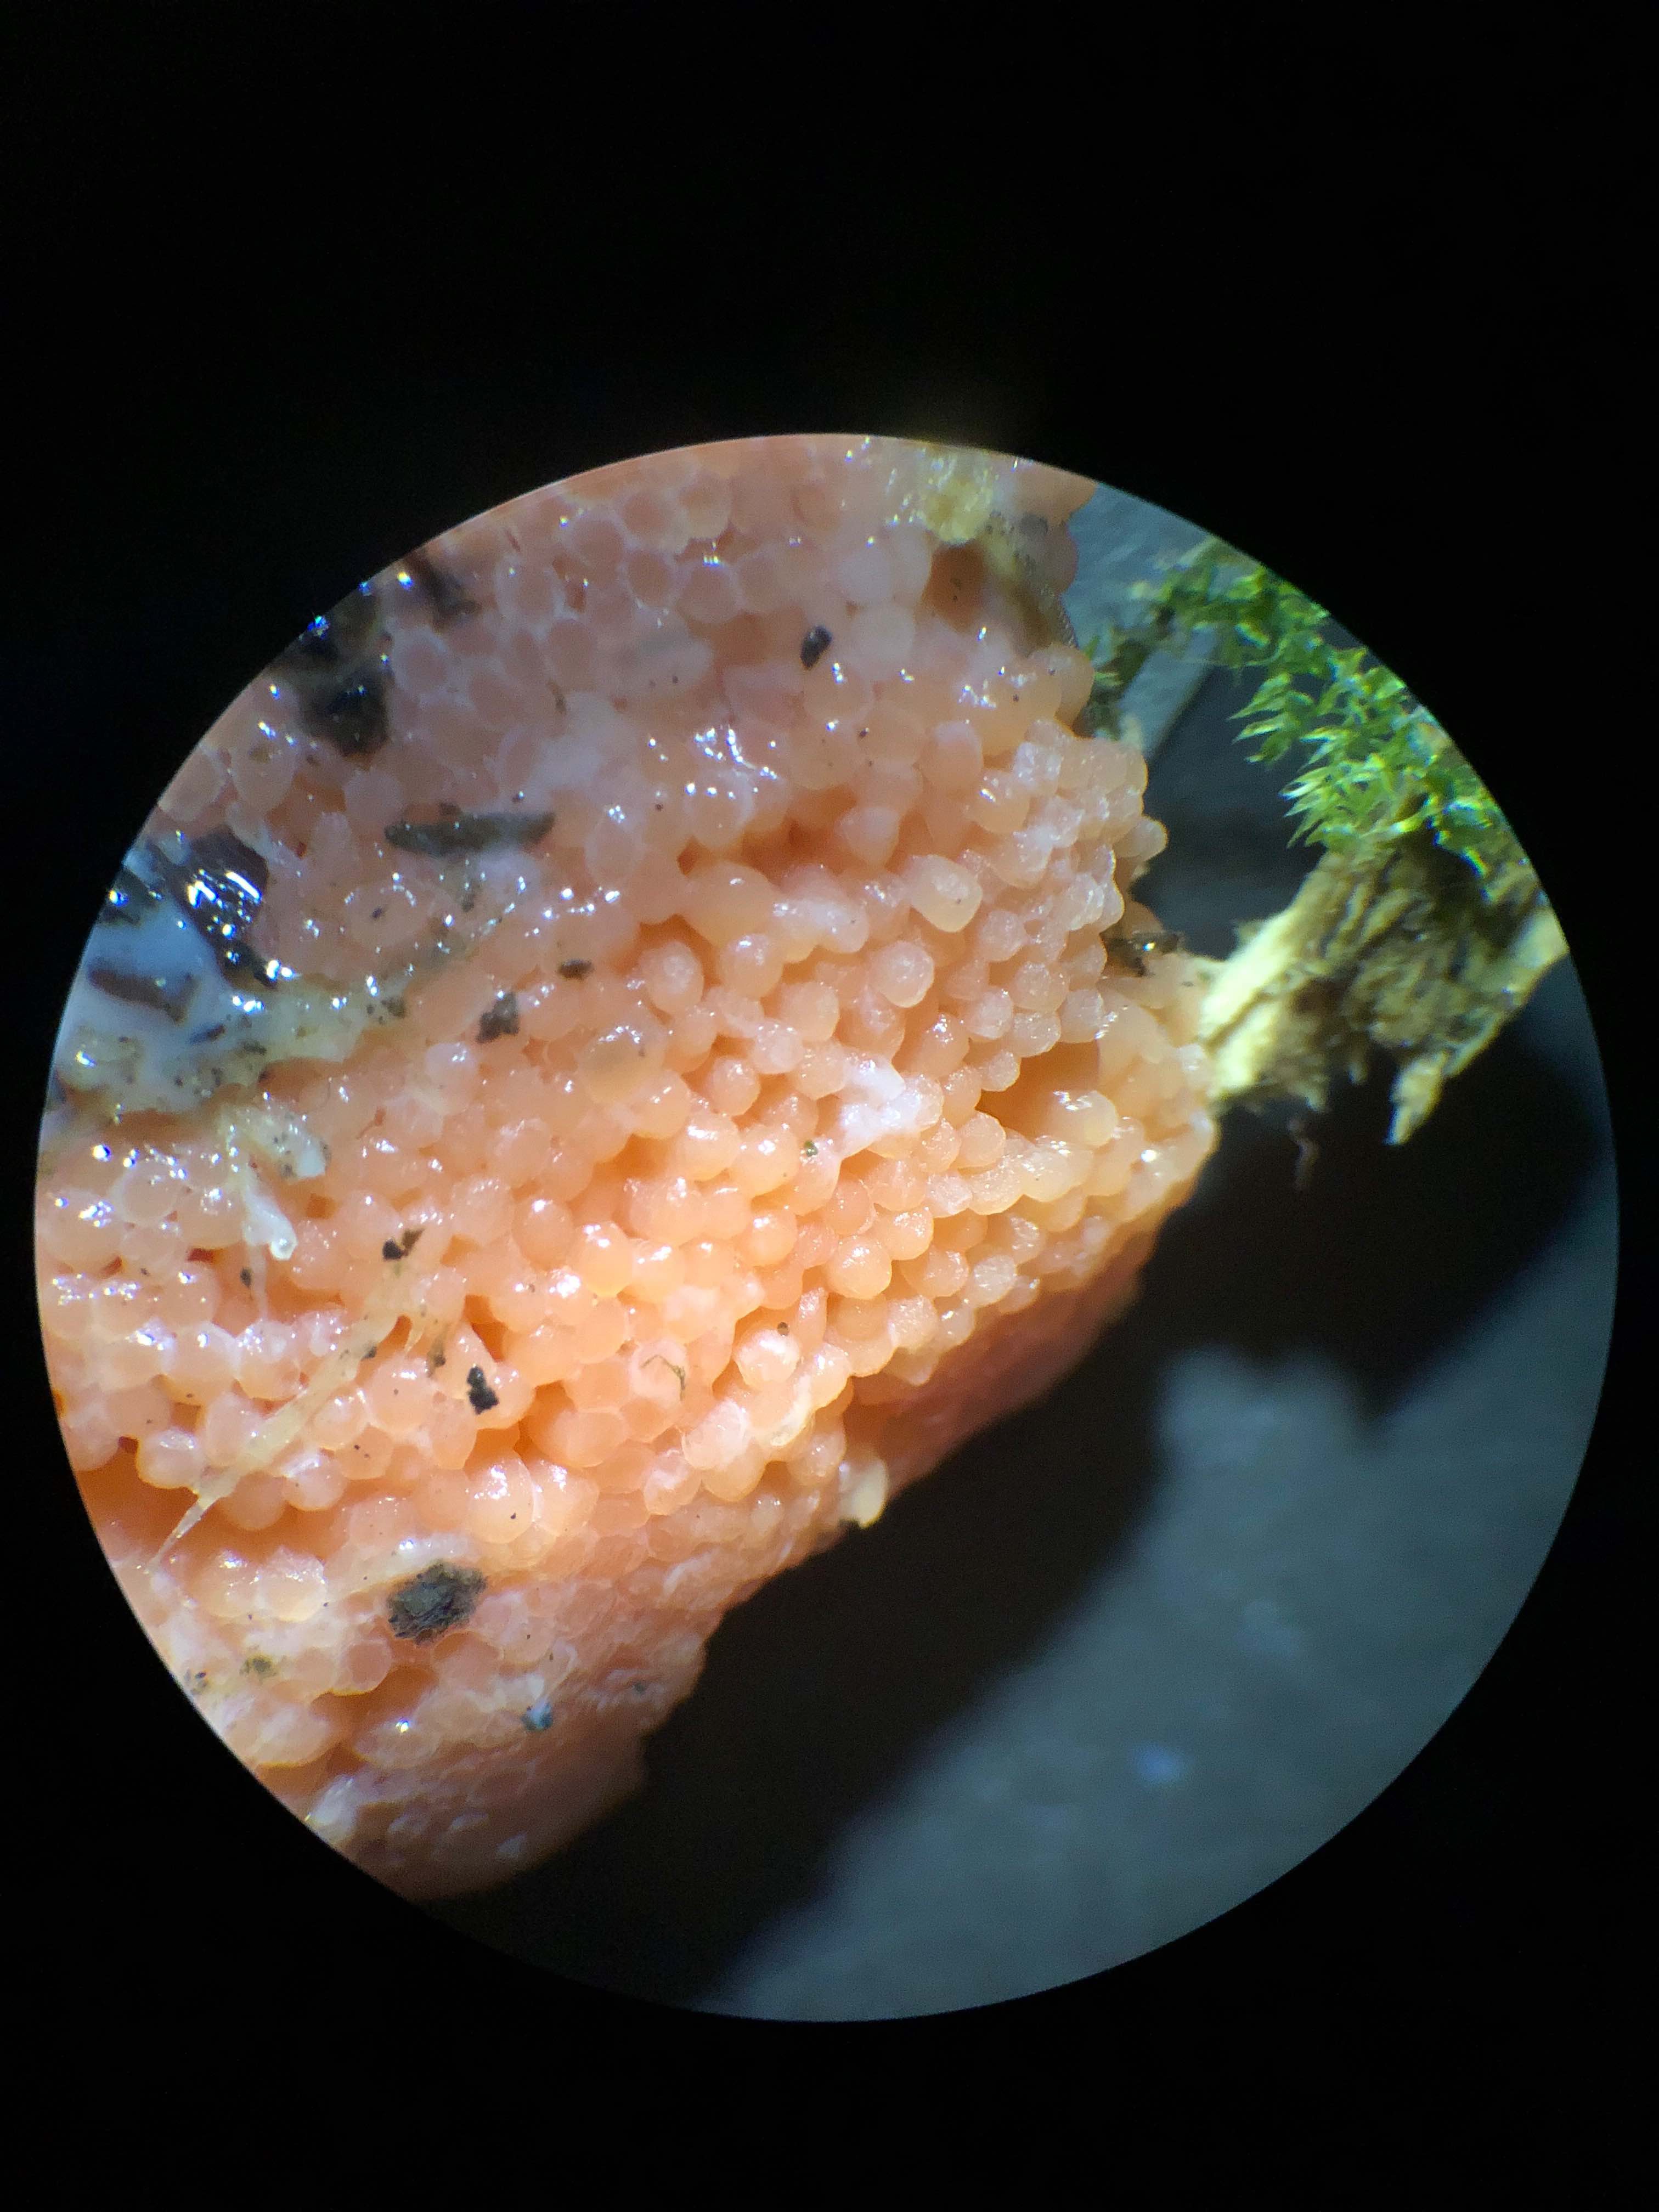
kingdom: Protozoa
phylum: Mycetozoa
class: Myxomycetes
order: Cribrariales
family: Tubiferaceae
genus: Tubifera
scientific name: Tubifera ferruginosa
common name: kanel-støvrør
